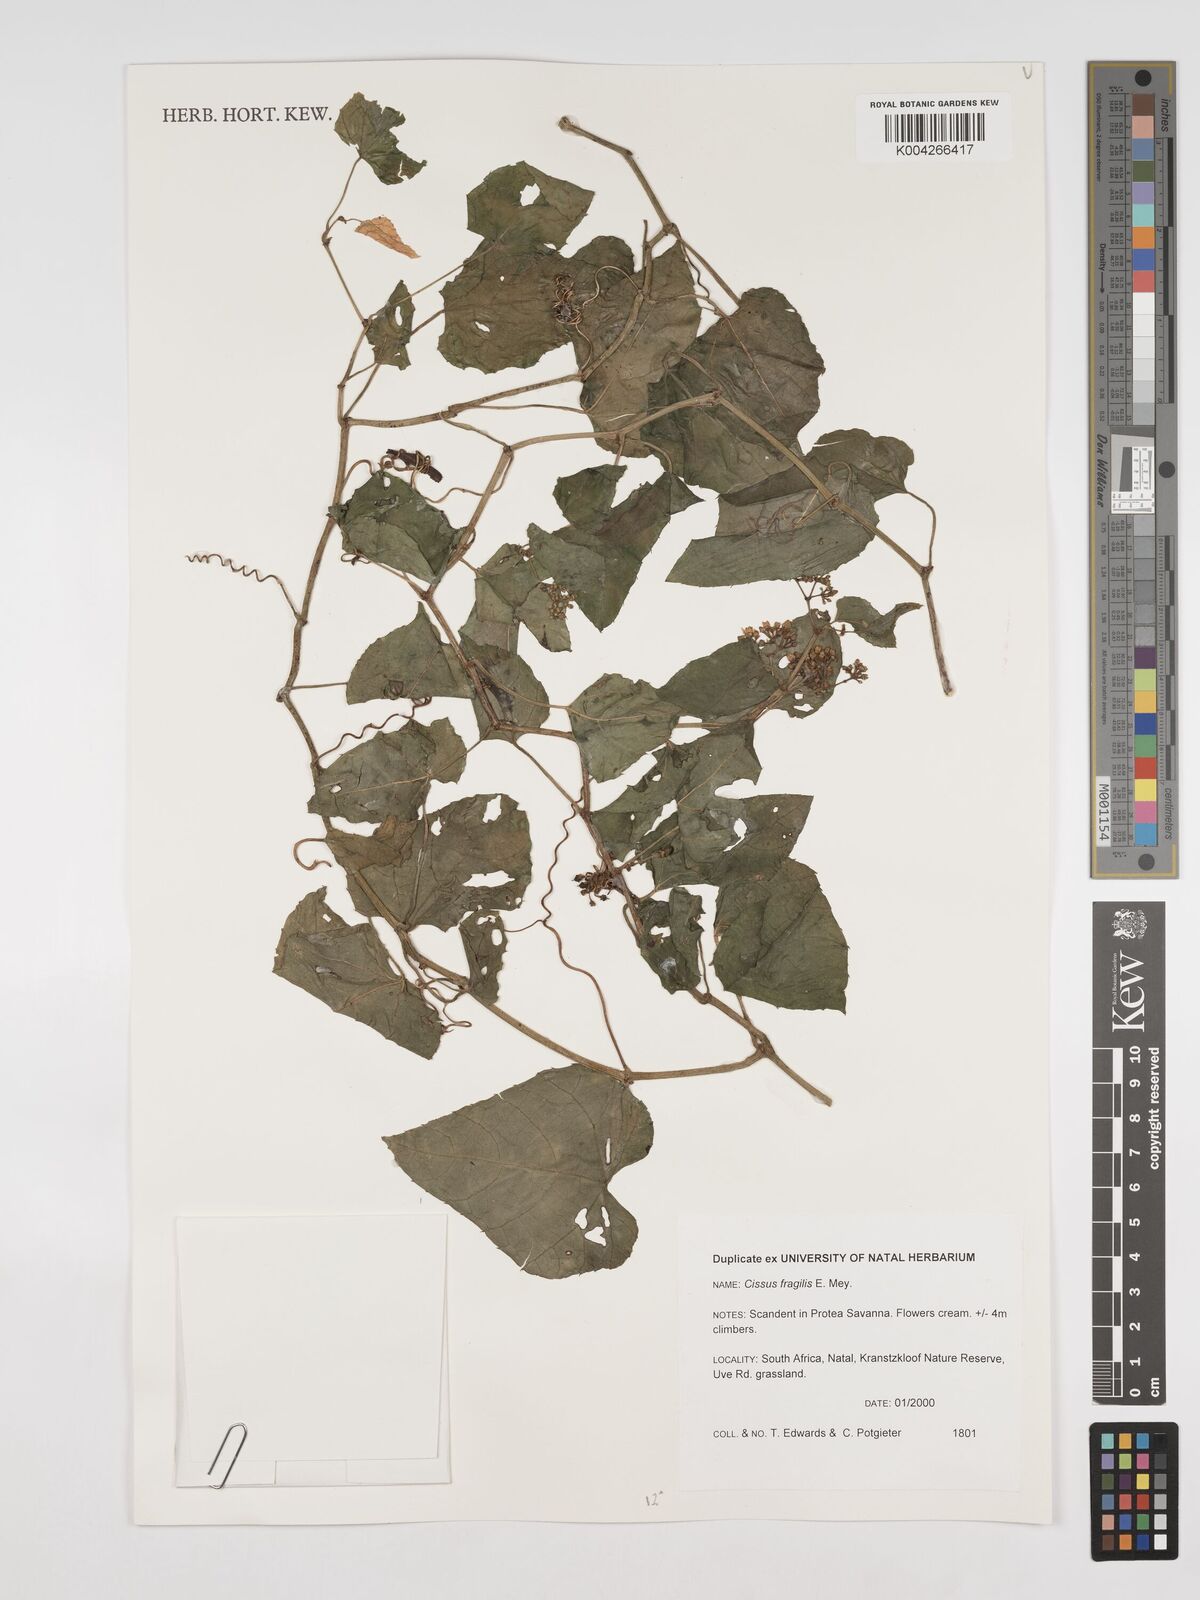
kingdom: Plantae
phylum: Tracheophyta
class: Magnoliopsida
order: Vitales
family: Vitaceae
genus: Cissus
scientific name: Cissus fragilis
